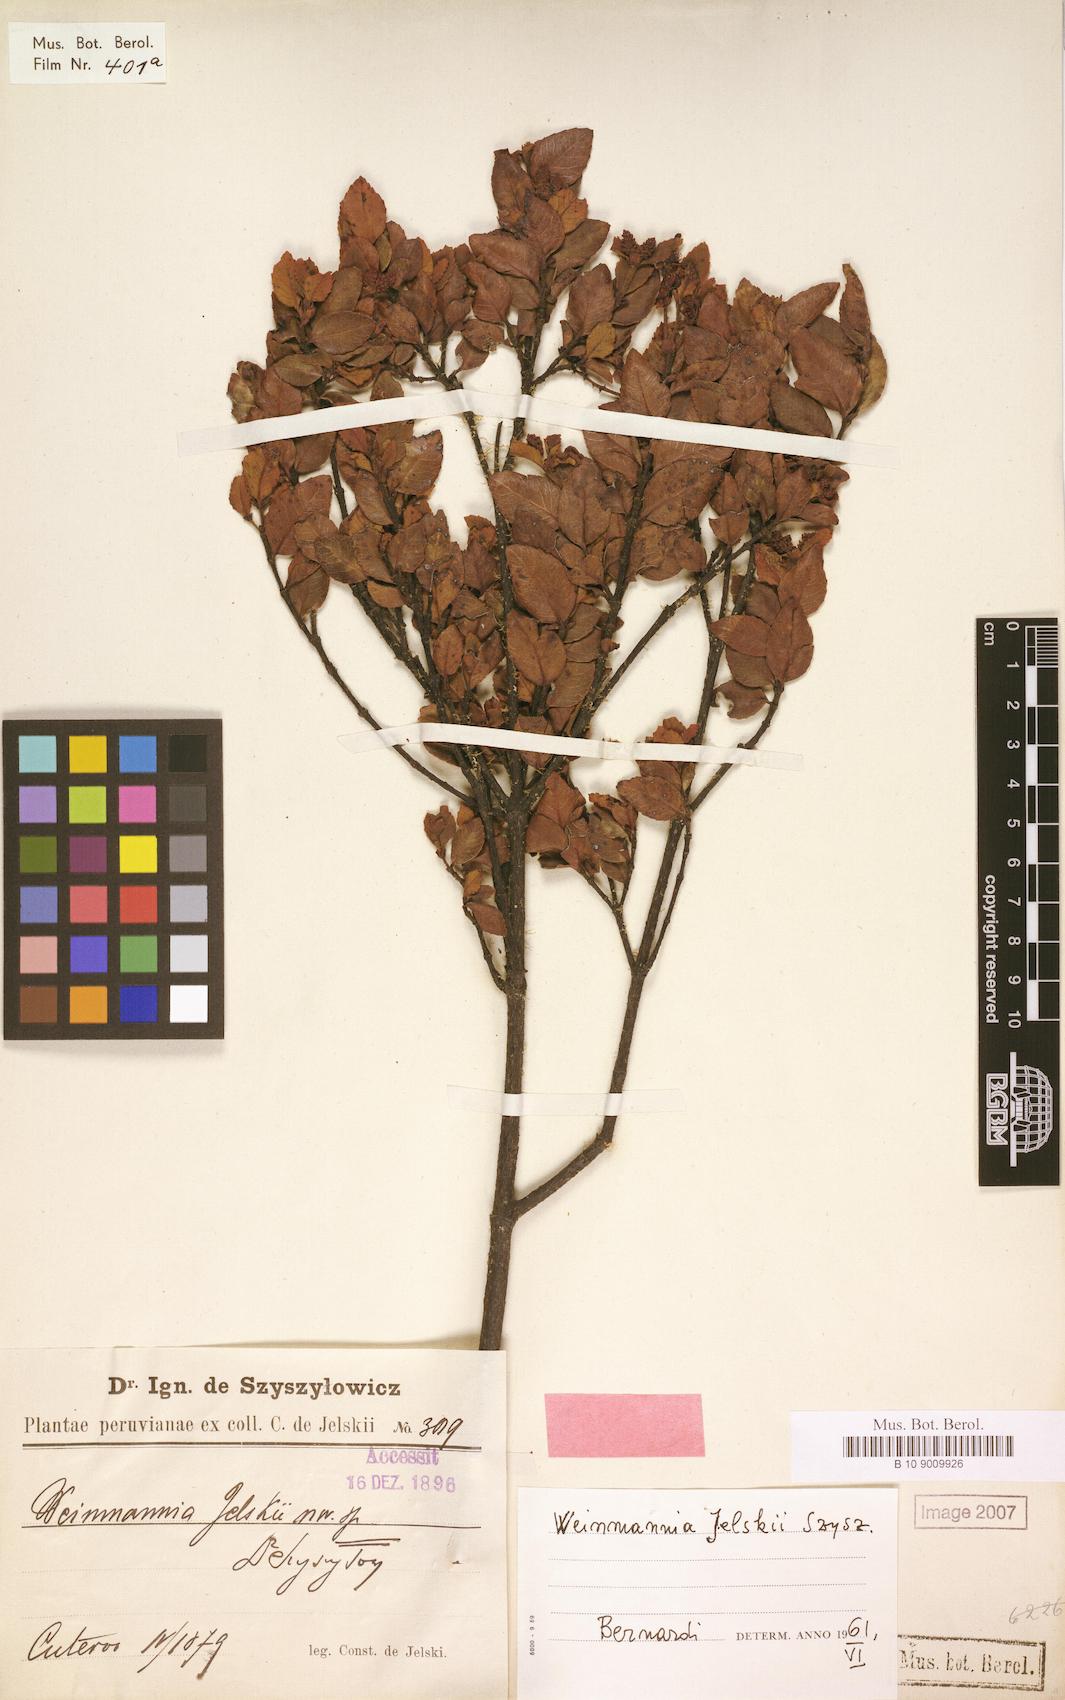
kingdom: Plantae
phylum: Tracheophyta
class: Magnoliopsida
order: Oxalidales
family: Cunoniaceae
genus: Weinmannia
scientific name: Weinmannia jelskii
